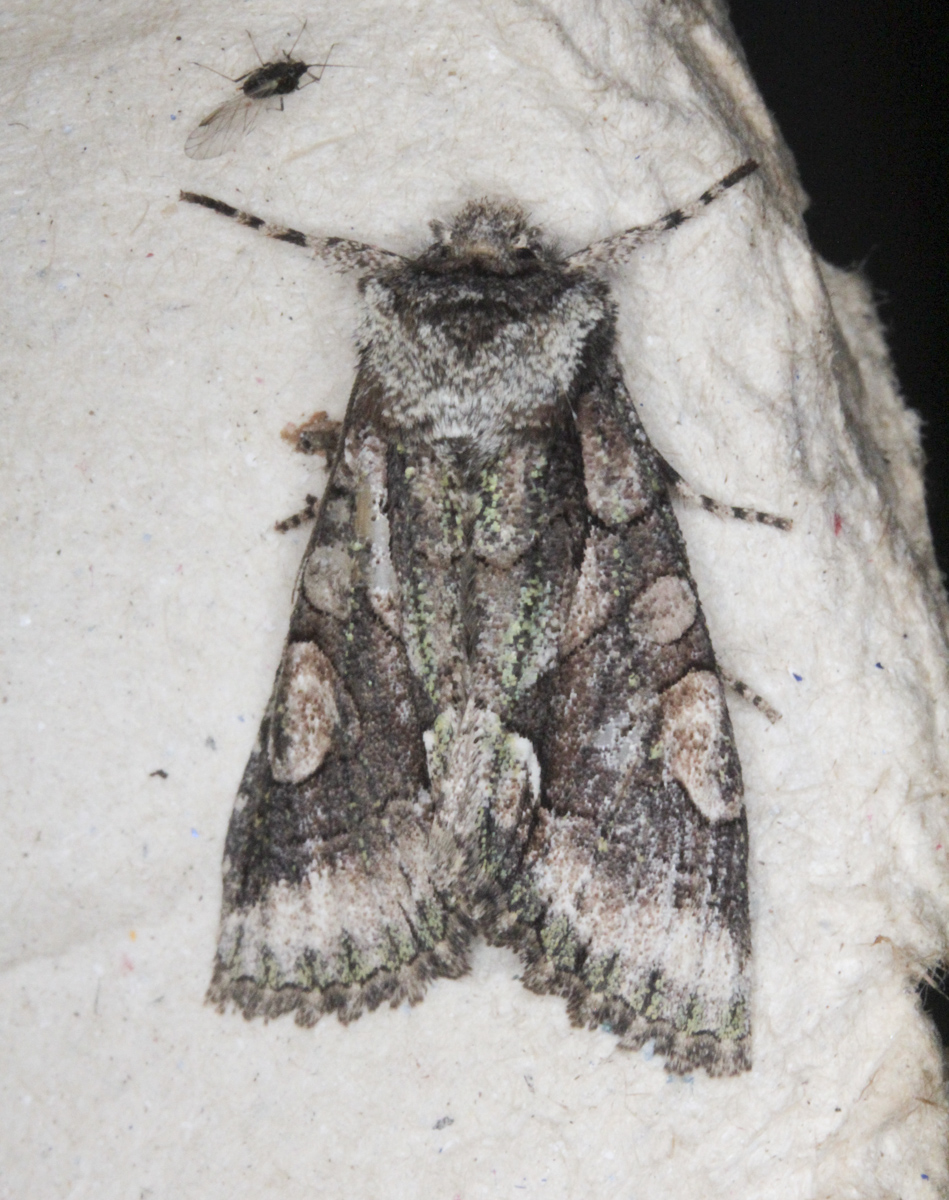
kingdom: Animalia
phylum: Arthropoda
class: Insecta
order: Lepidoptera
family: Noctuidae
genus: Allophyes
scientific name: Allophyes oxyacanthae
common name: Green-brindled crescent
